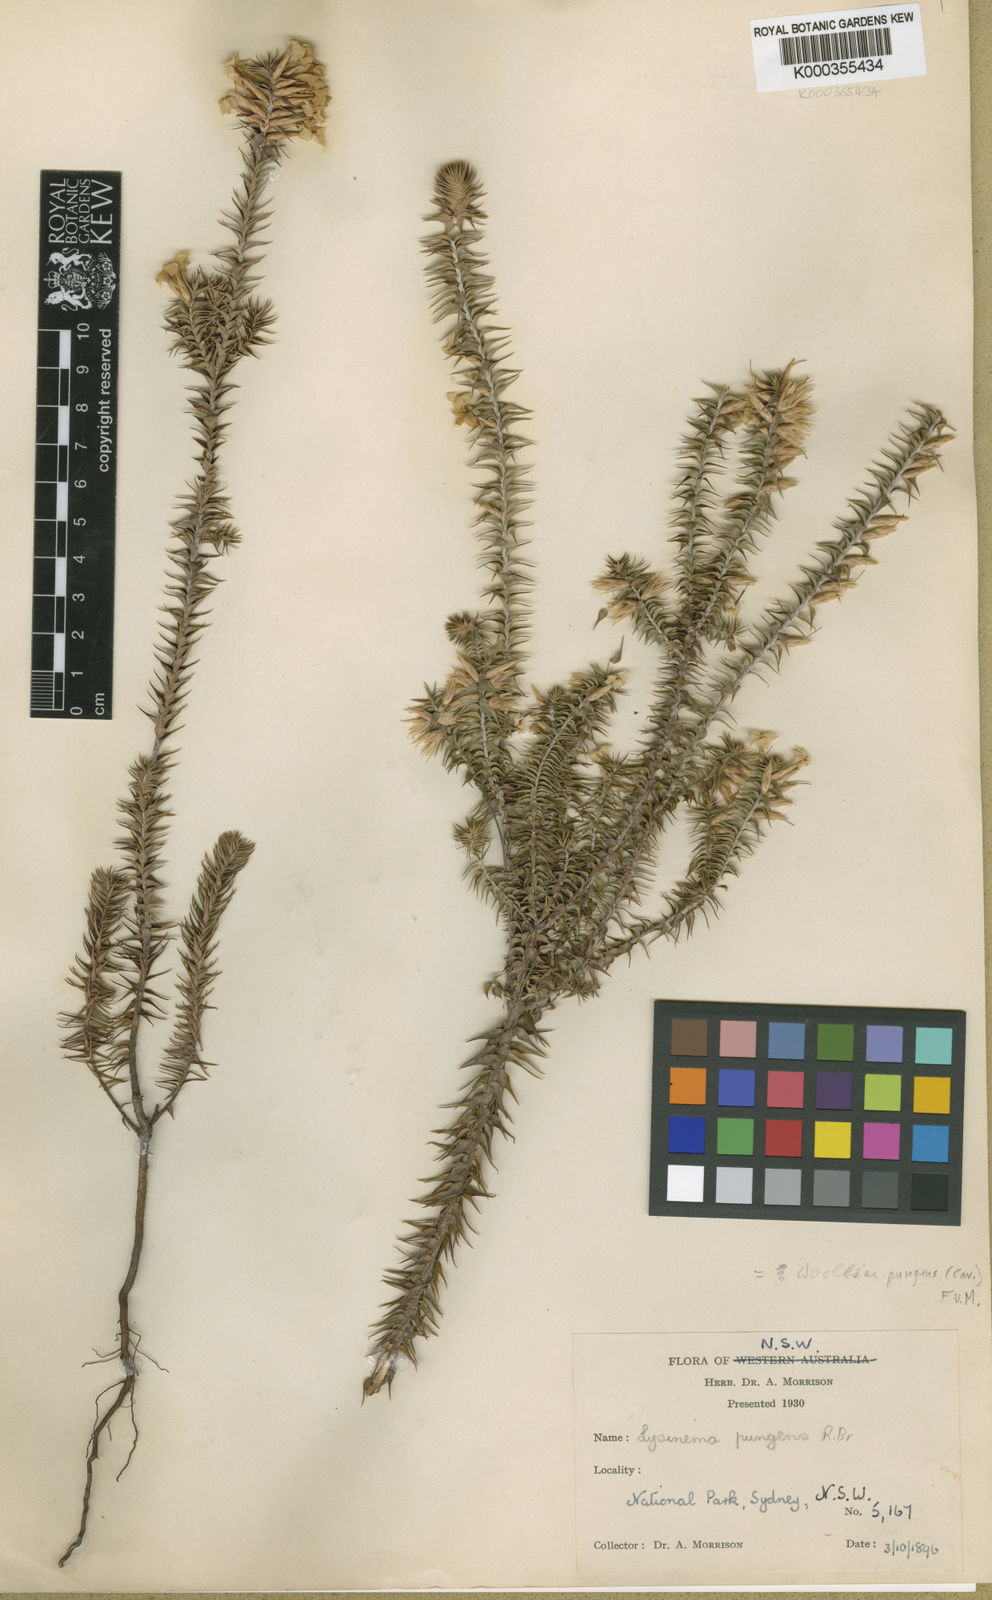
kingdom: Plantae
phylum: Tracheophyta
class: Magnoliopsida
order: Ericales
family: Ericaceae
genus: Woollsia
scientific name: Woollsia pungens
